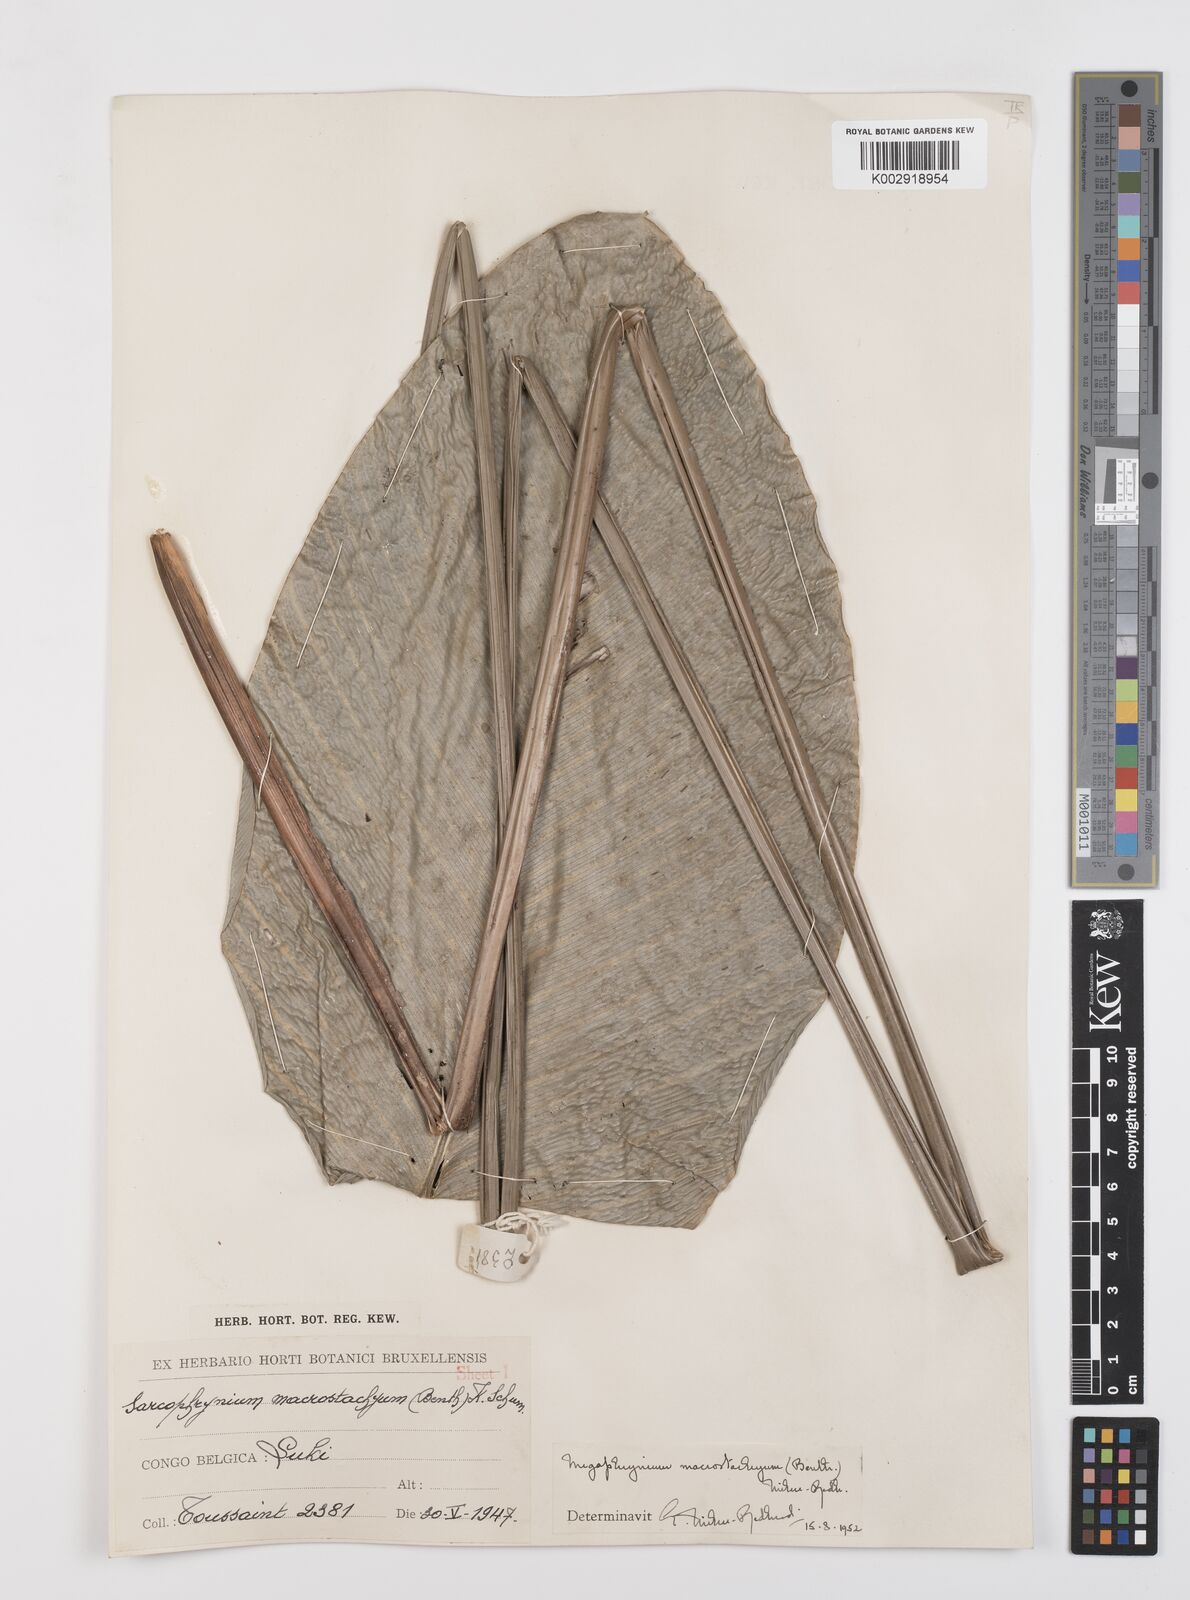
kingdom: Plantae
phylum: Tracheophyta
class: Liliopsida
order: Zingiberales
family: Marantaceae
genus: Megaphrynium
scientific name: Megaphrynium trichogynum
